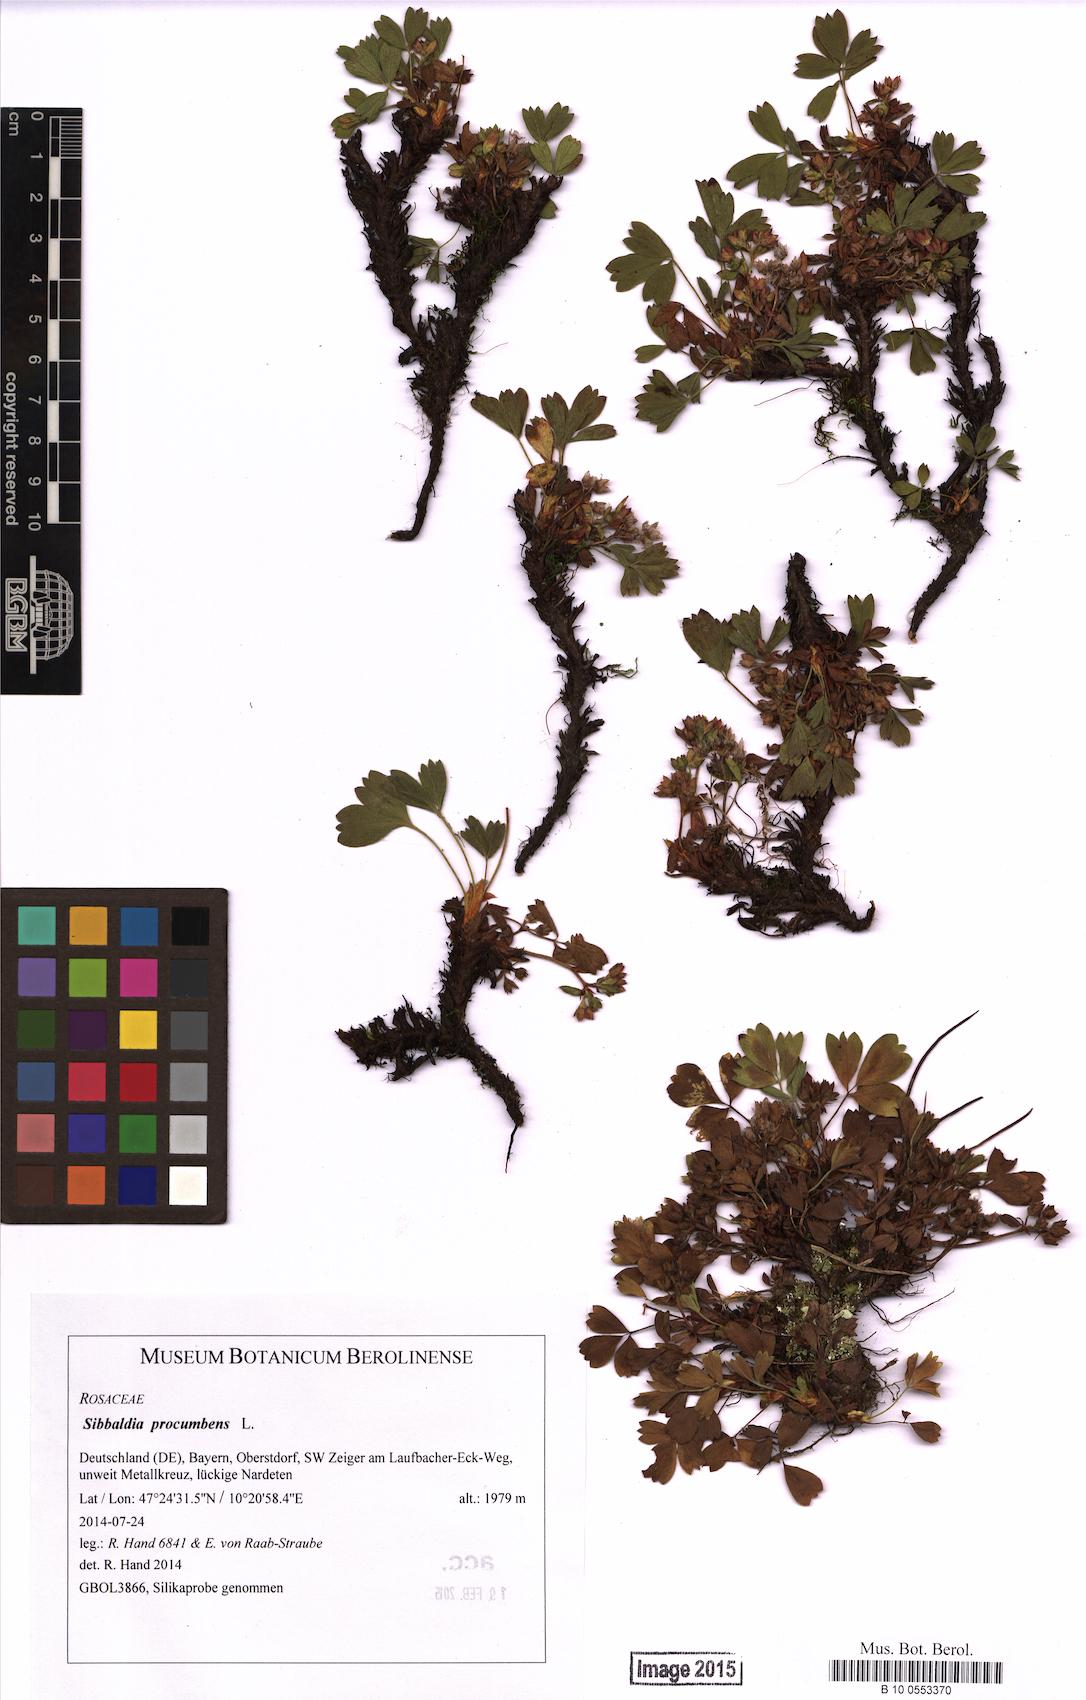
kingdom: Plantae
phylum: Tracheophyta
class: Magnoliopsida
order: Rosales
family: Rosaceae
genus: Sibbaldia
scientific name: Sibbaldia procumbens
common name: Creeping sibbaldia
